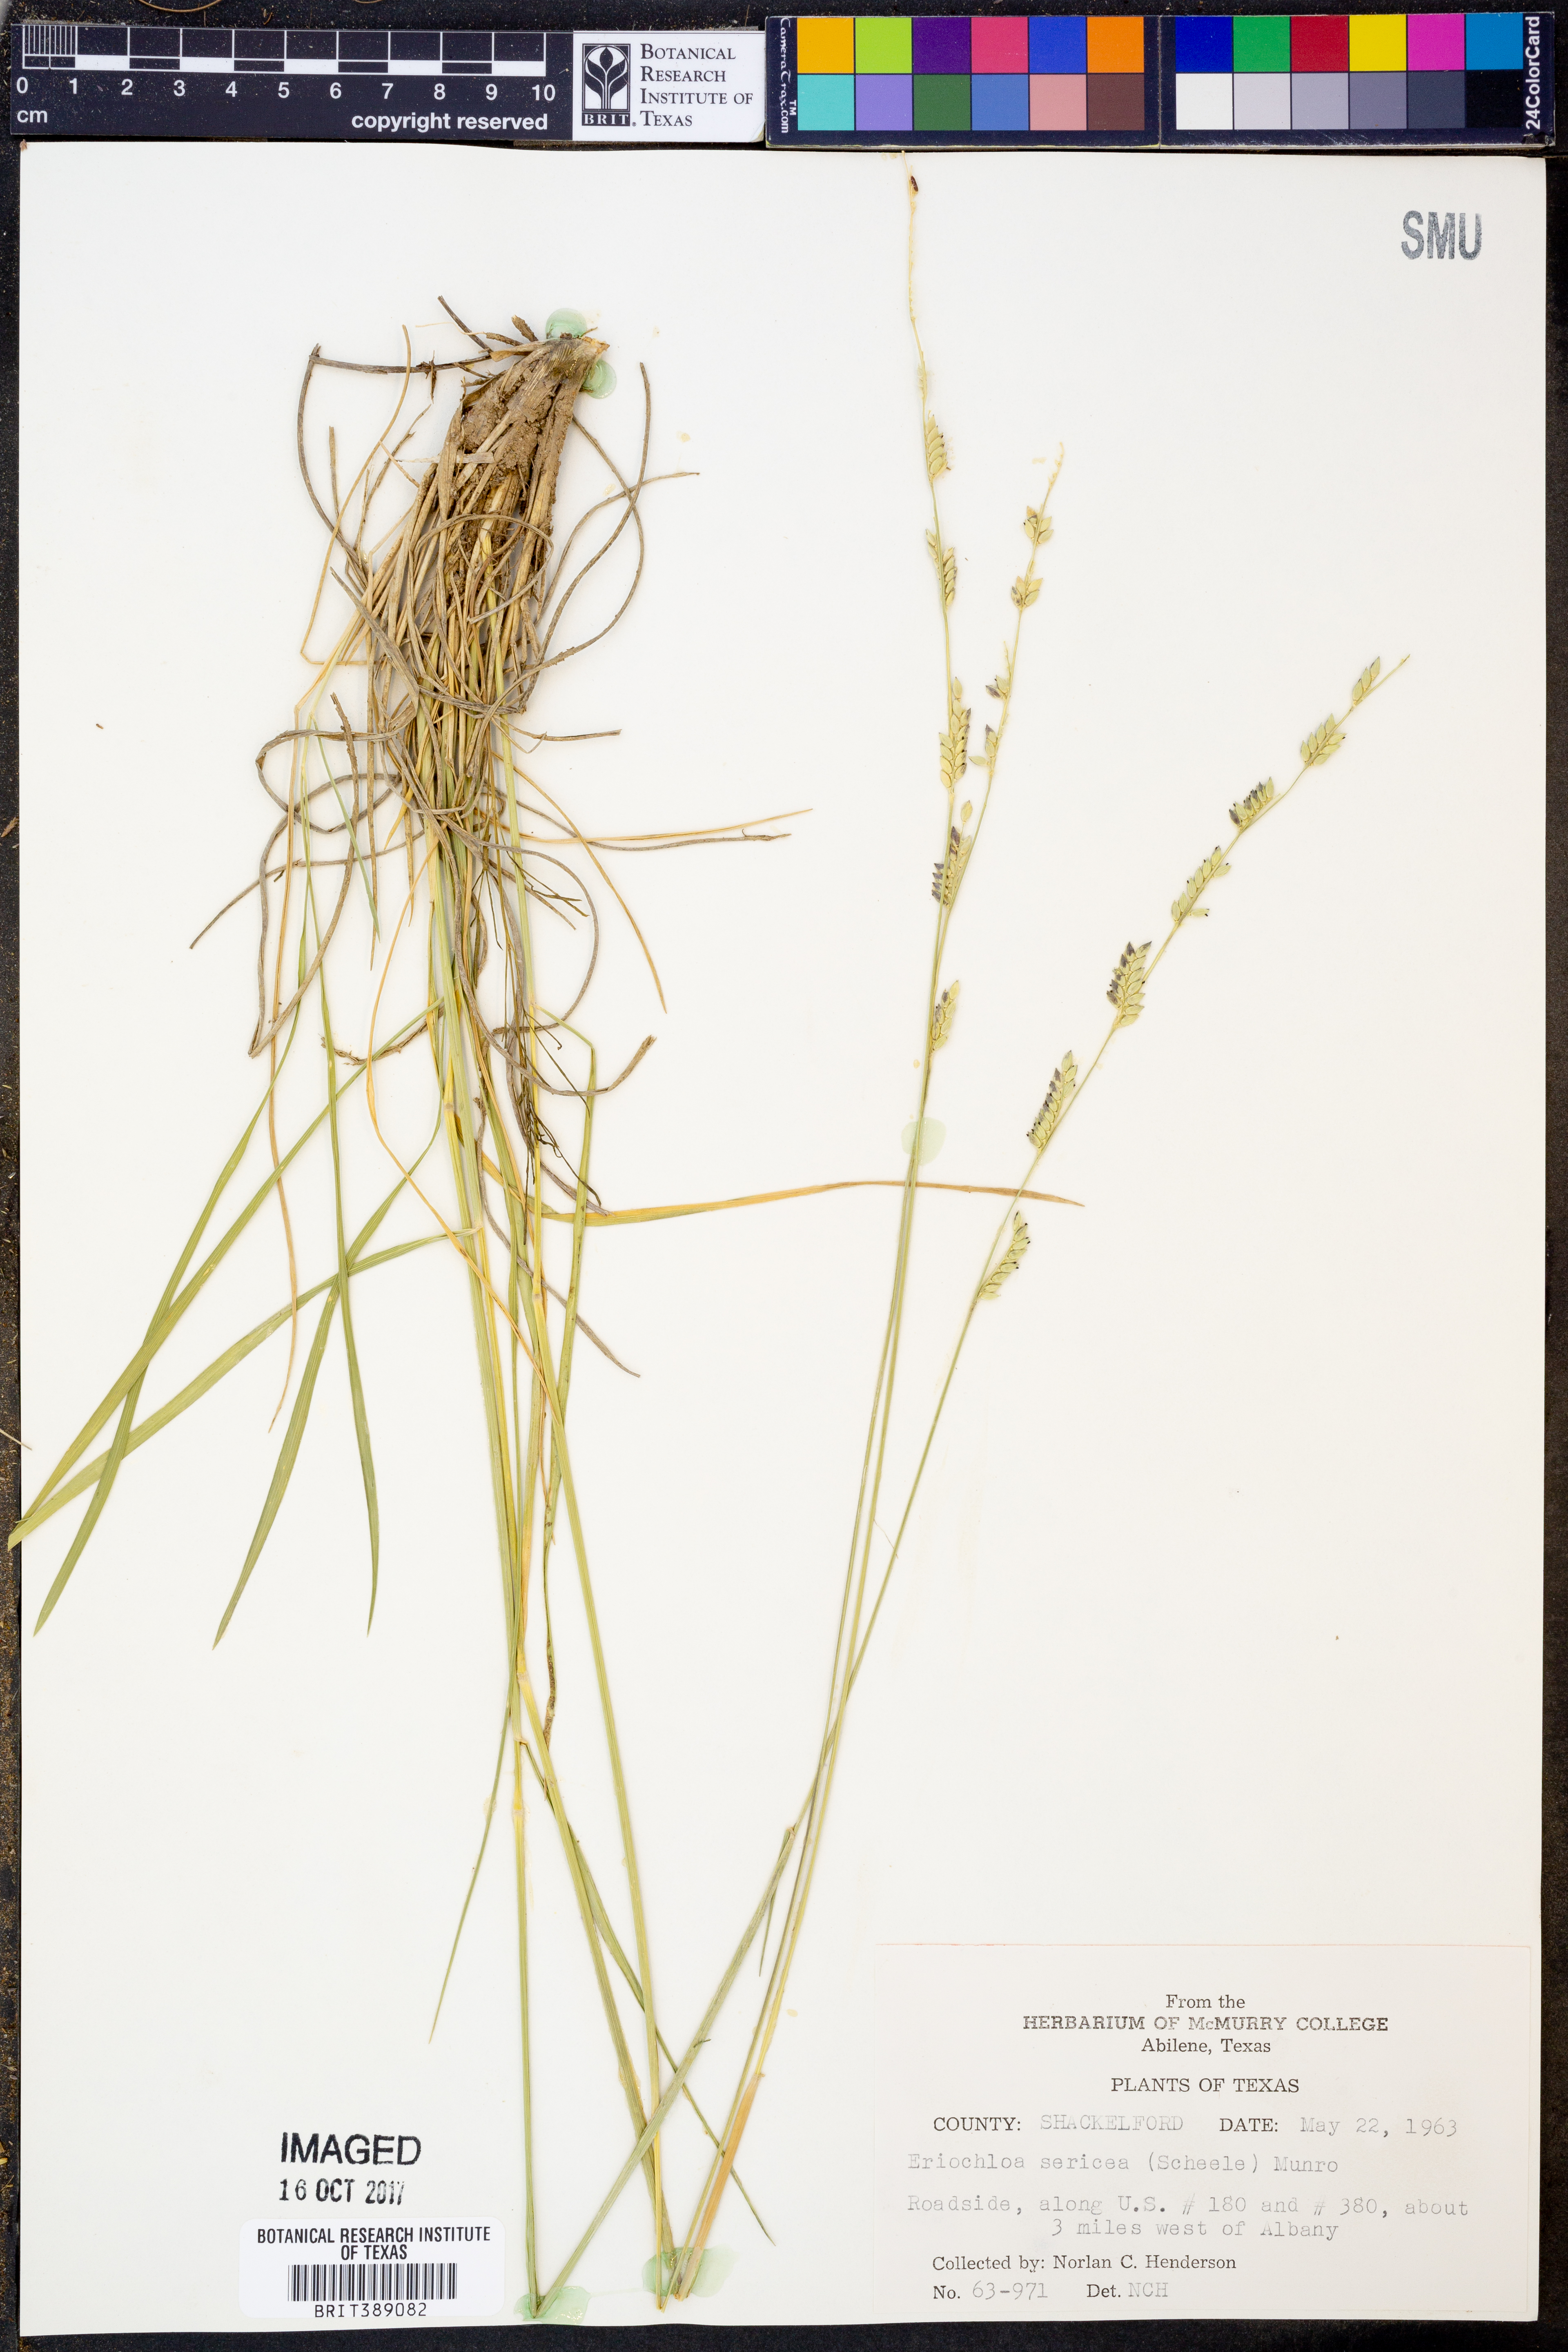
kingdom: Plantae
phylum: Tracheophyta
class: Liliopsida
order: Poales
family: Poaceae
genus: Eriochloa
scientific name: Eriochloa sericea
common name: Texas cup grass
